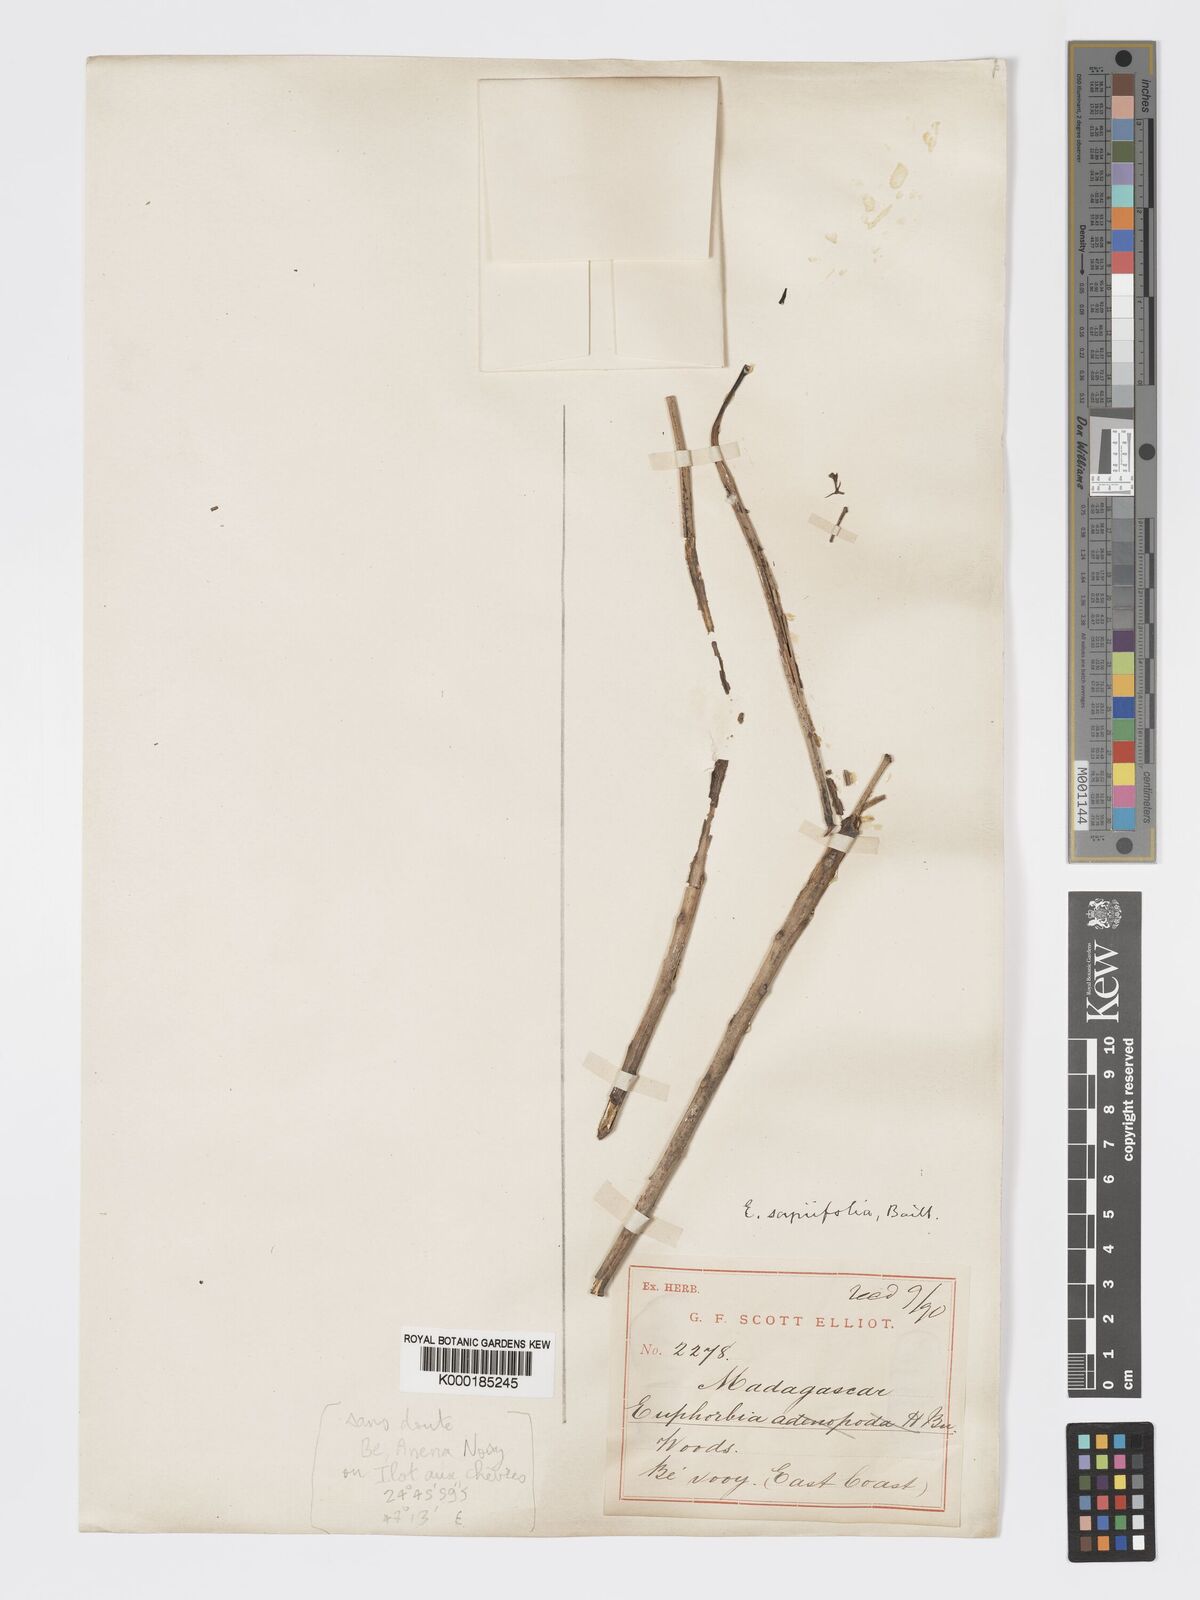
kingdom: Plantae
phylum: Tracheophyta
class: Magnoliopsida
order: Malpighiales
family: Euphorbiaceae
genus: Euphorbia
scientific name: Euphorbia adenopoda
